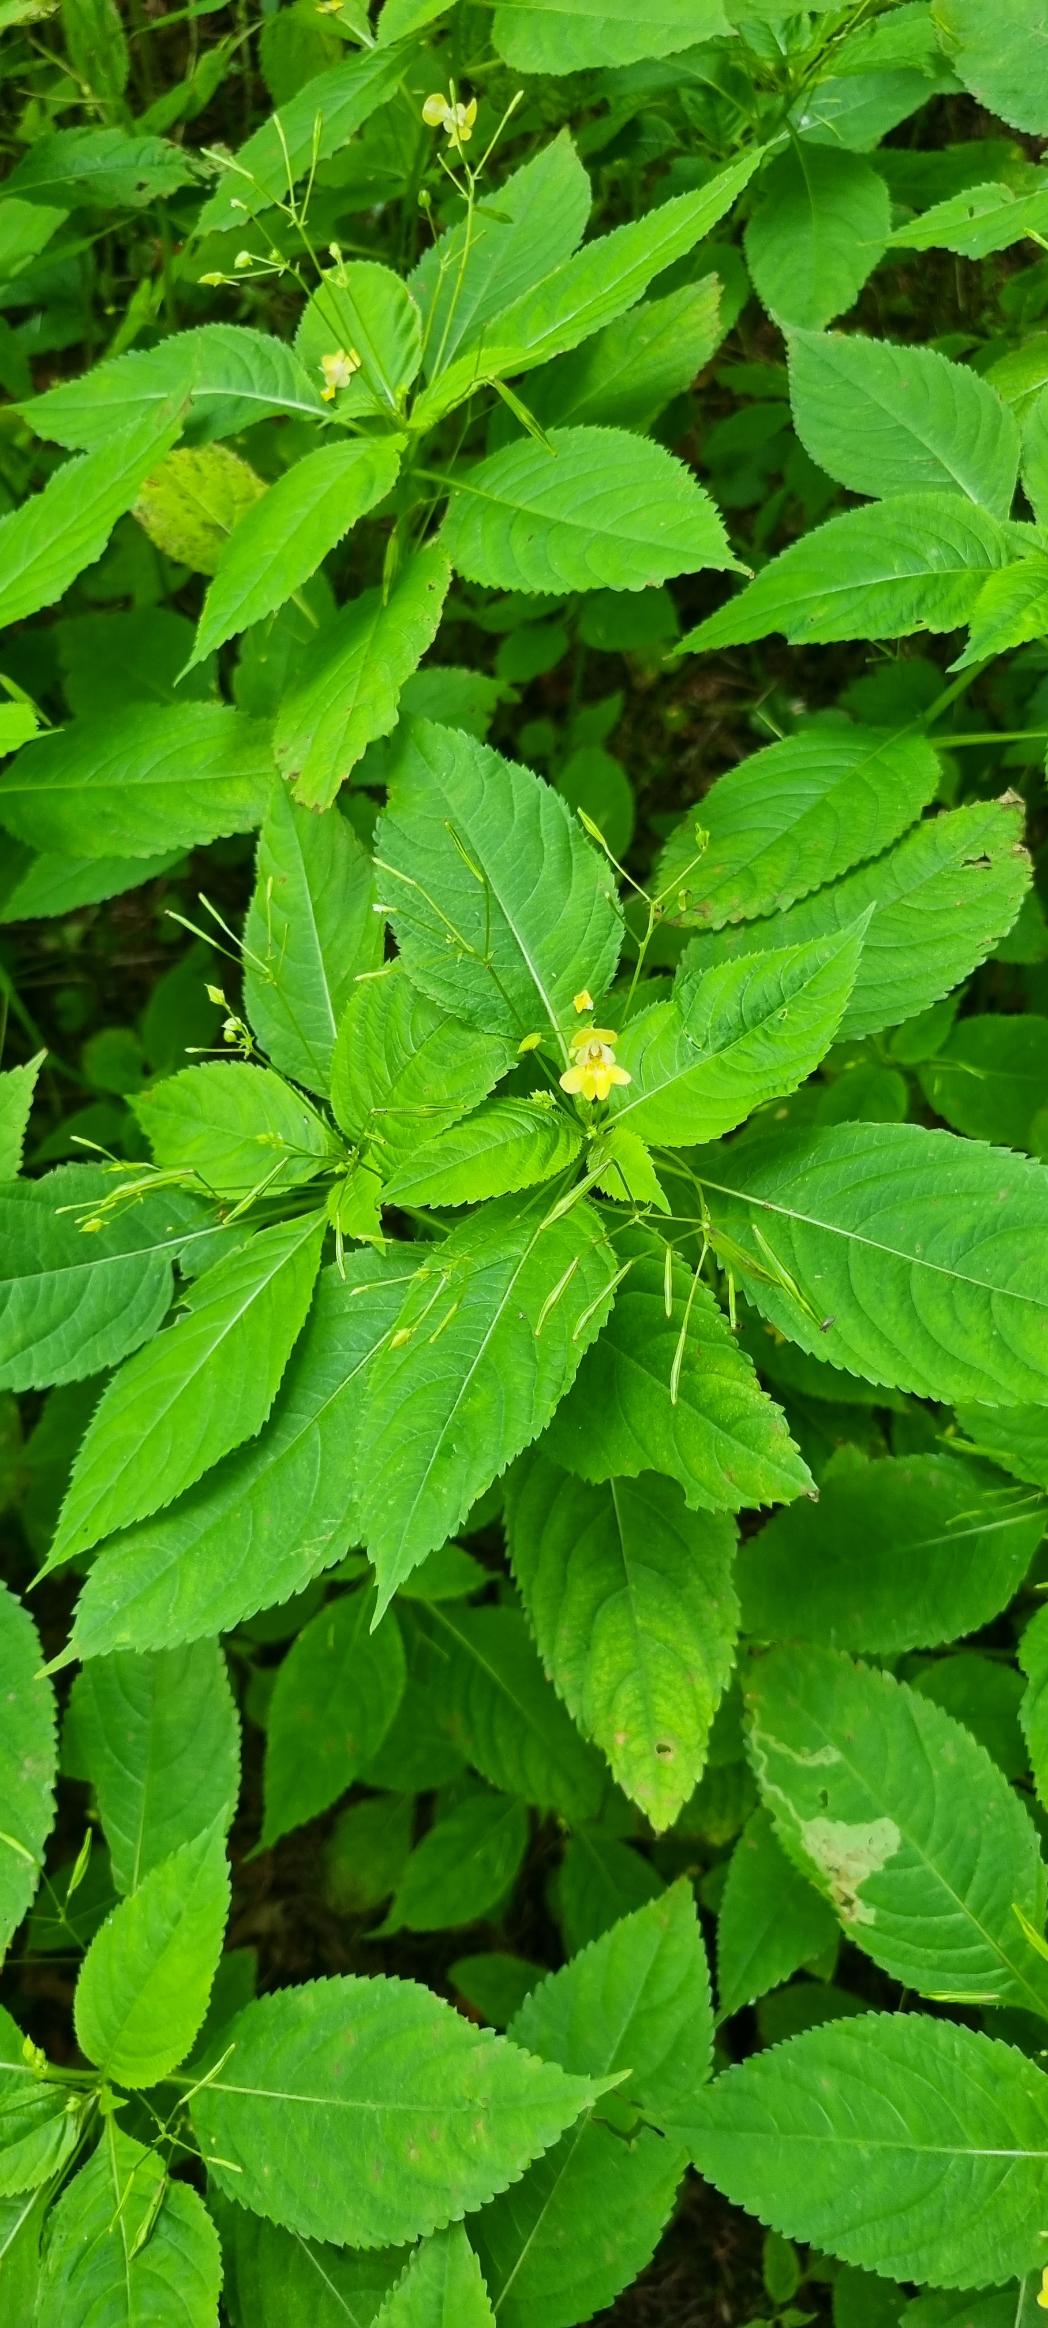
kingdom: Plantae
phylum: Tracheophyta
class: Magnoliopsida
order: Ericales
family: Balsaminaceae
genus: Impatiens
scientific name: Impatiens parviflora
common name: Småblomstret balsamin
